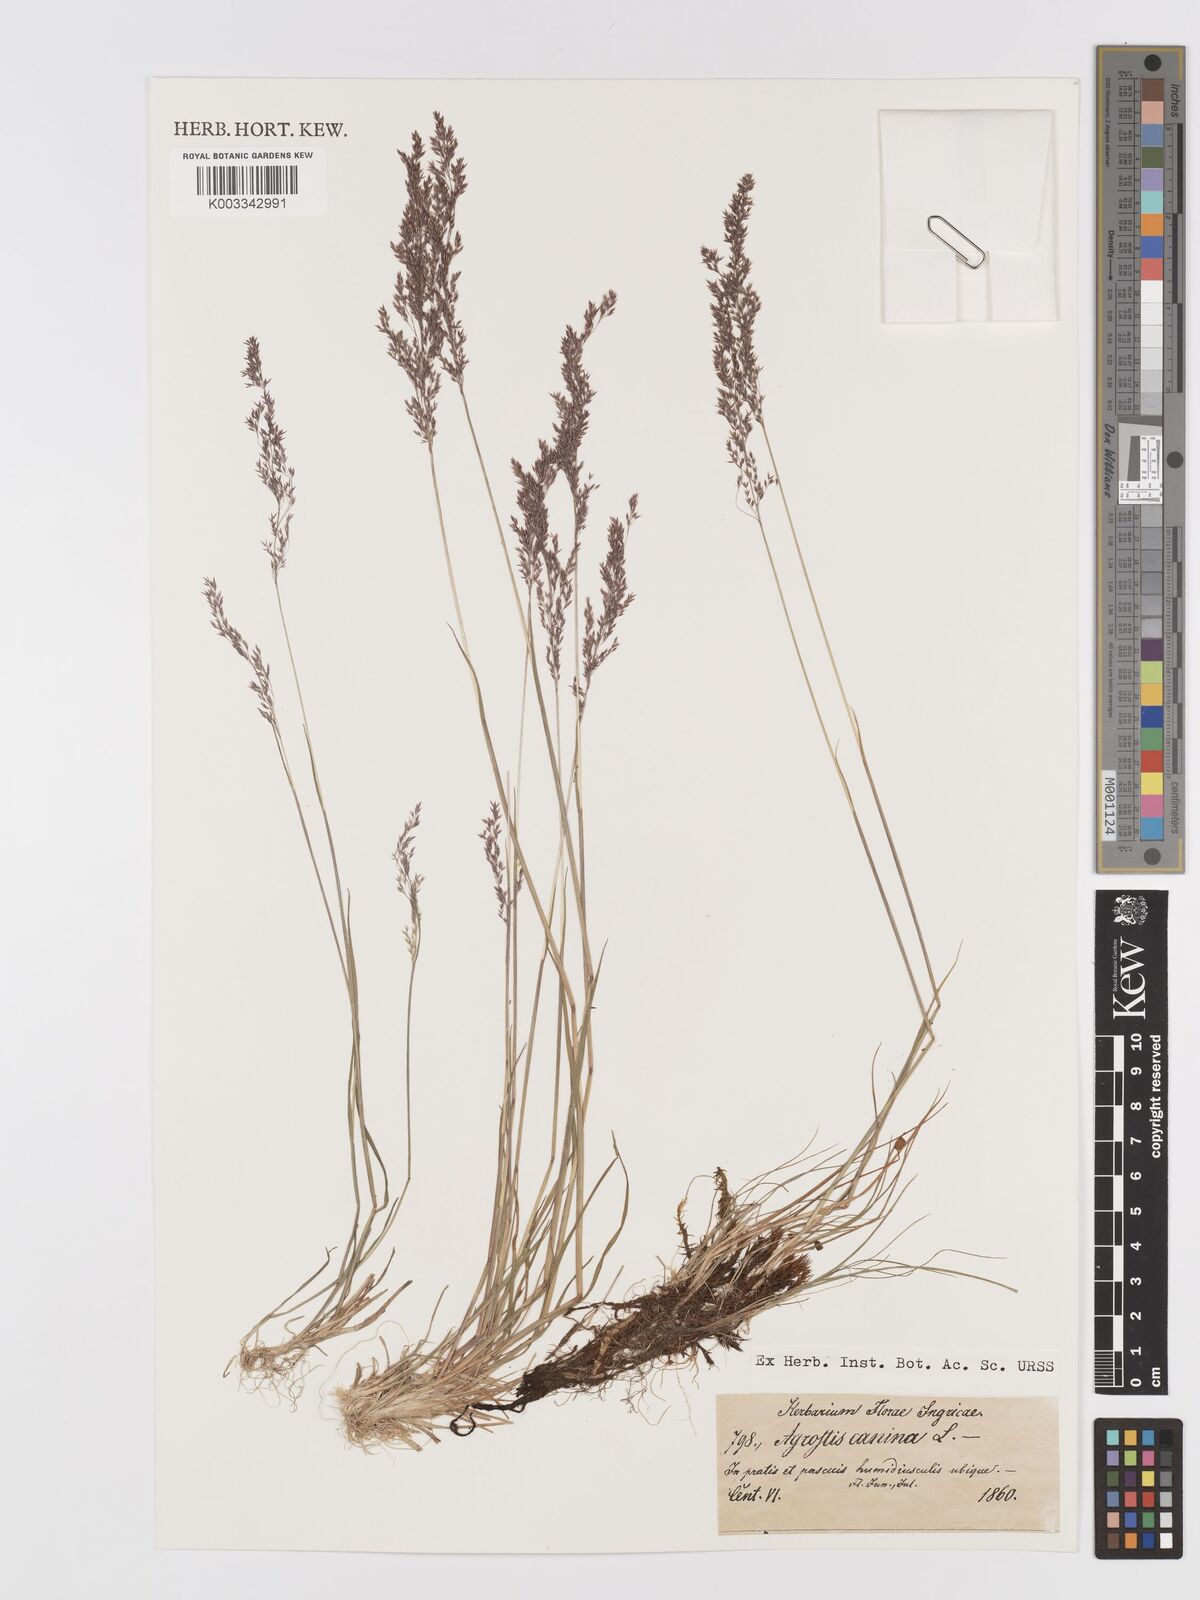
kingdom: Plantae
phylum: Tracheophyta
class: Liliopsida
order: Poales
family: Poaceae
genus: Agrostis
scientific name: Agrostis canina
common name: Velvet bent
